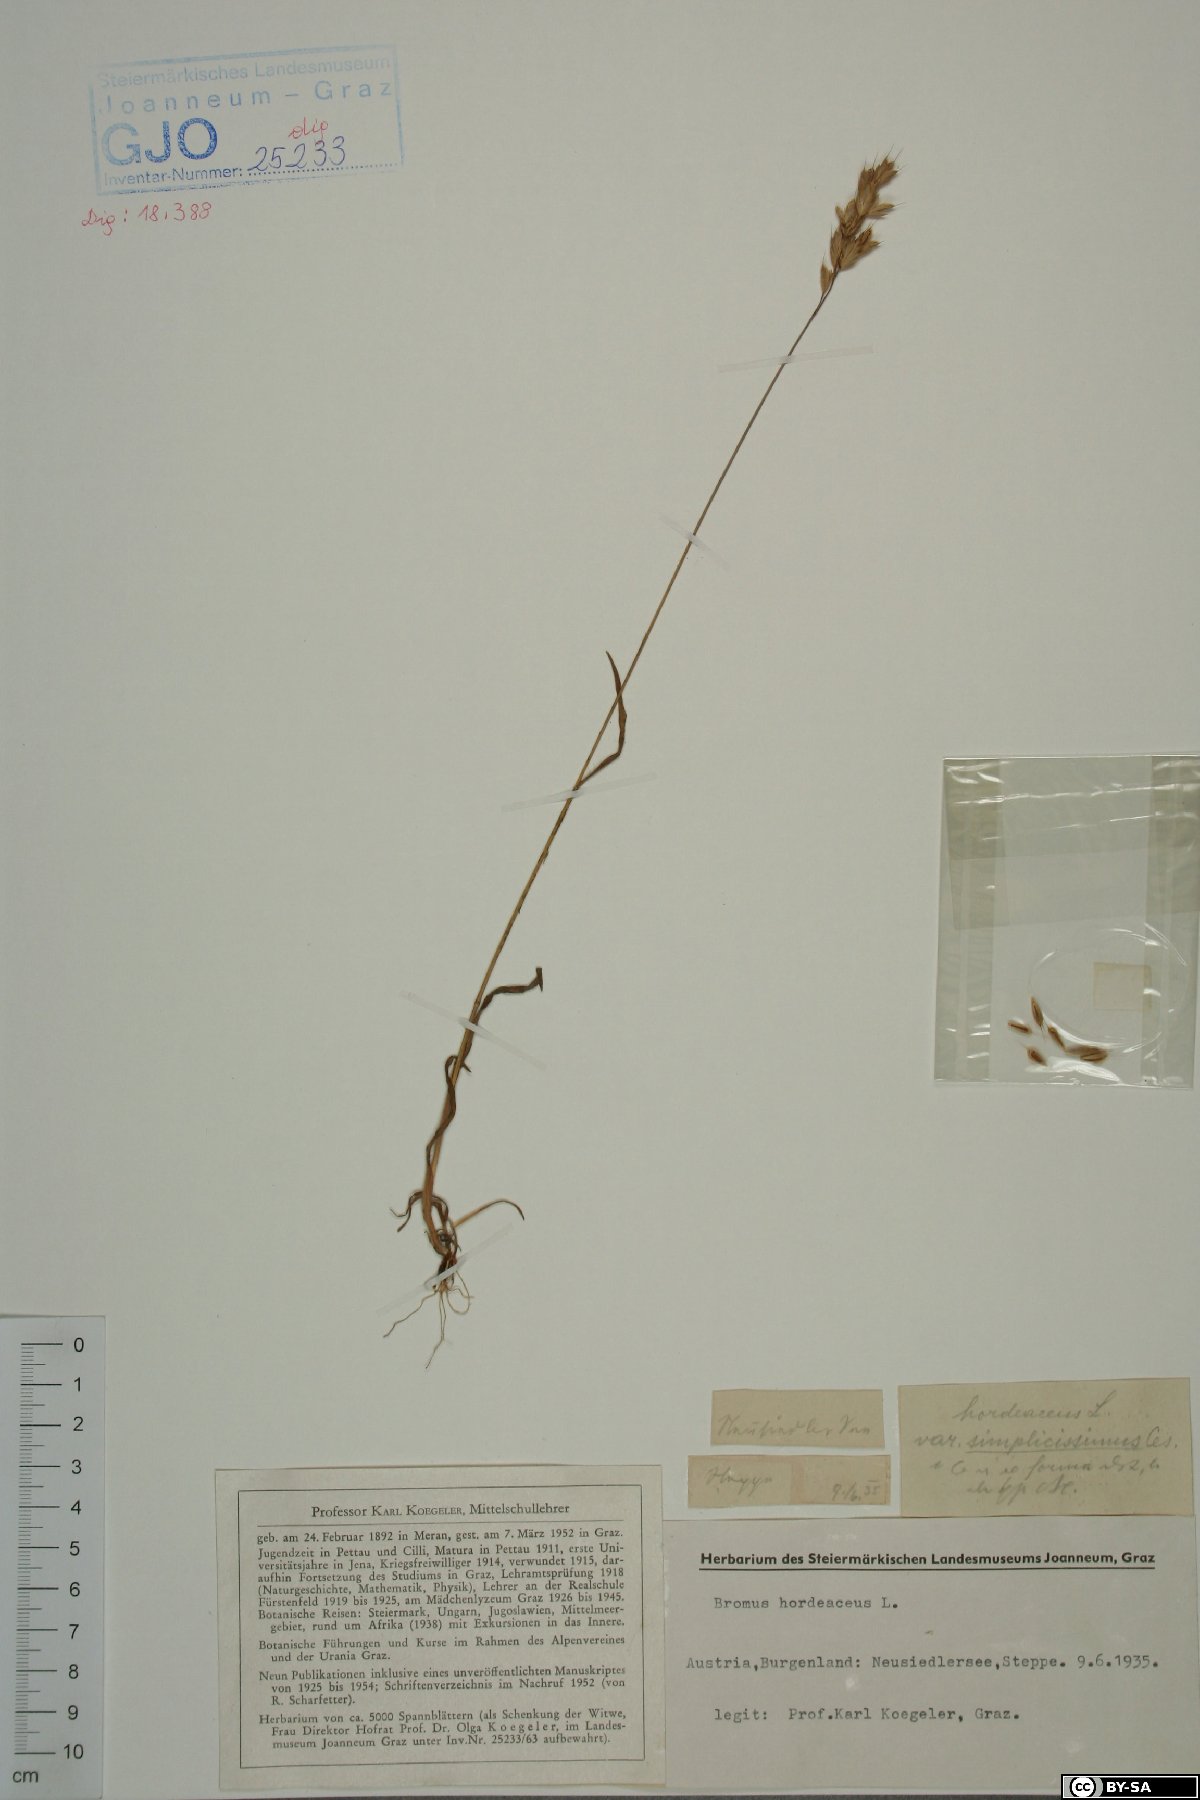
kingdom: Plantae
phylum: Tracheophyta
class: Liliopsida
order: Poales
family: Poaceae
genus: Bromus
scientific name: Bromus hordeaceus
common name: Soft brome
